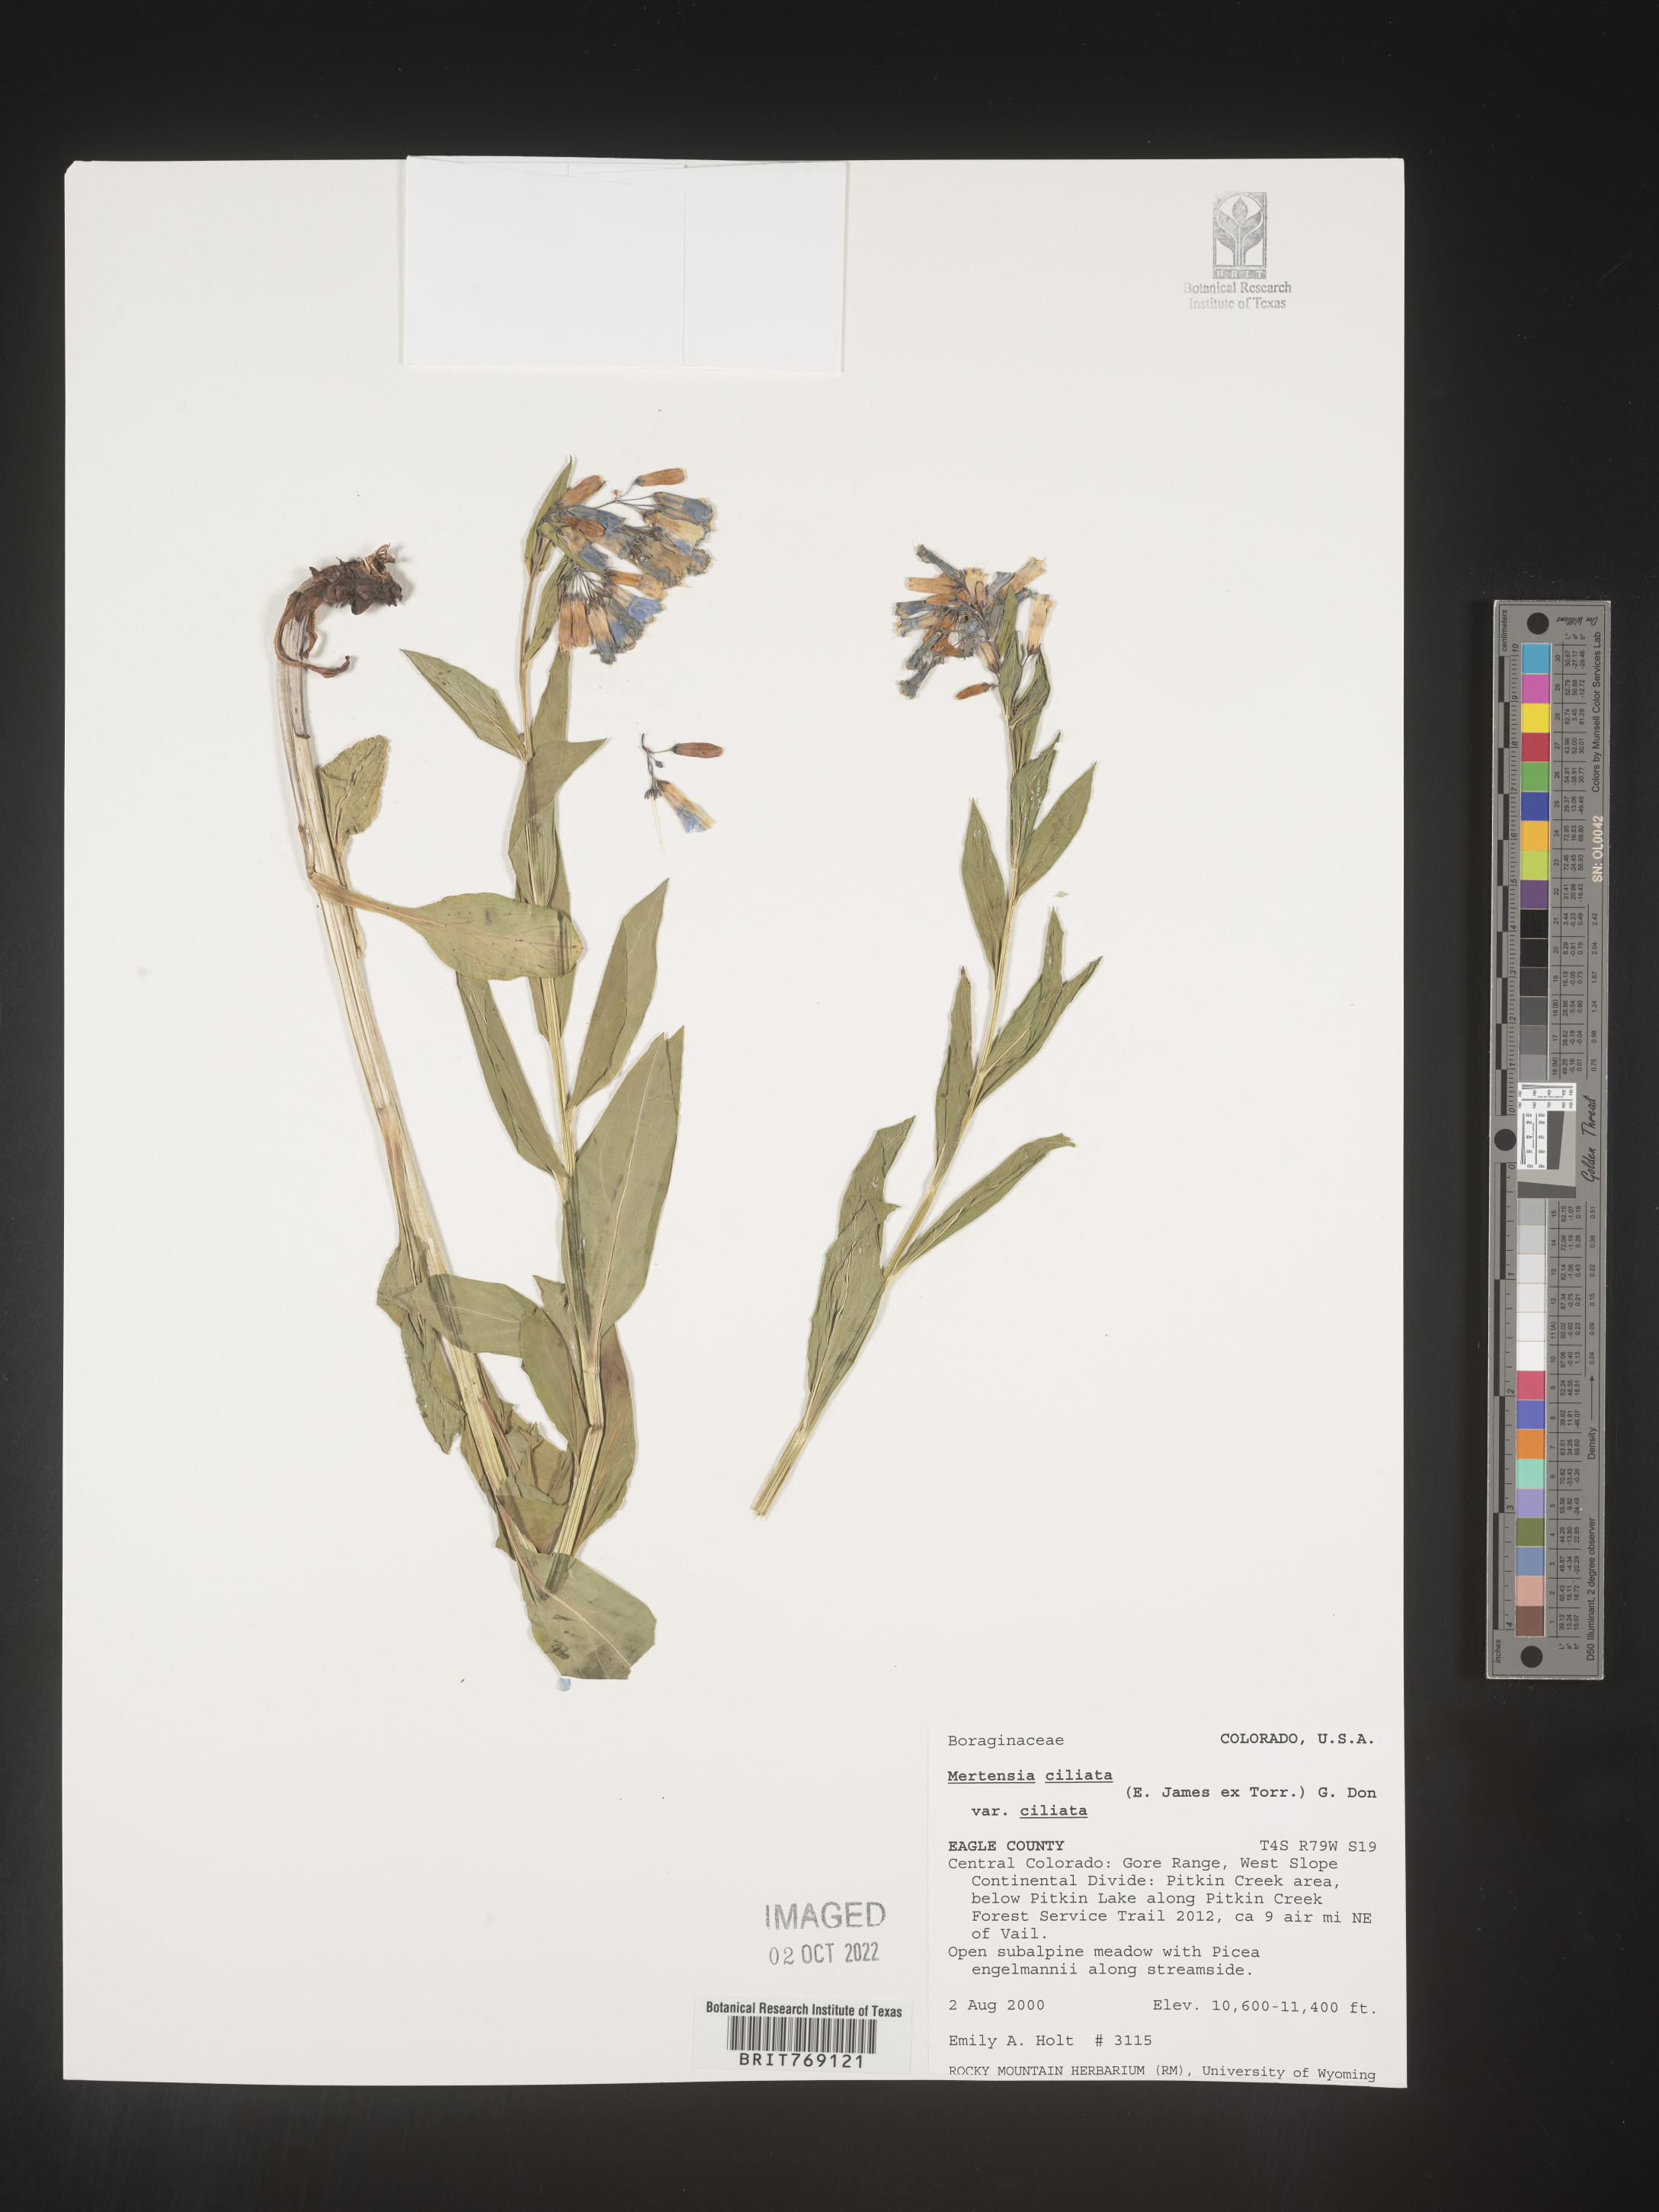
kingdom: Plantae
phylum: Tracheophyta
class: Magnoliopsida
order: Boraginales
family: Boraginaceae
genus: Mertensia
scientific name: Mertensia
